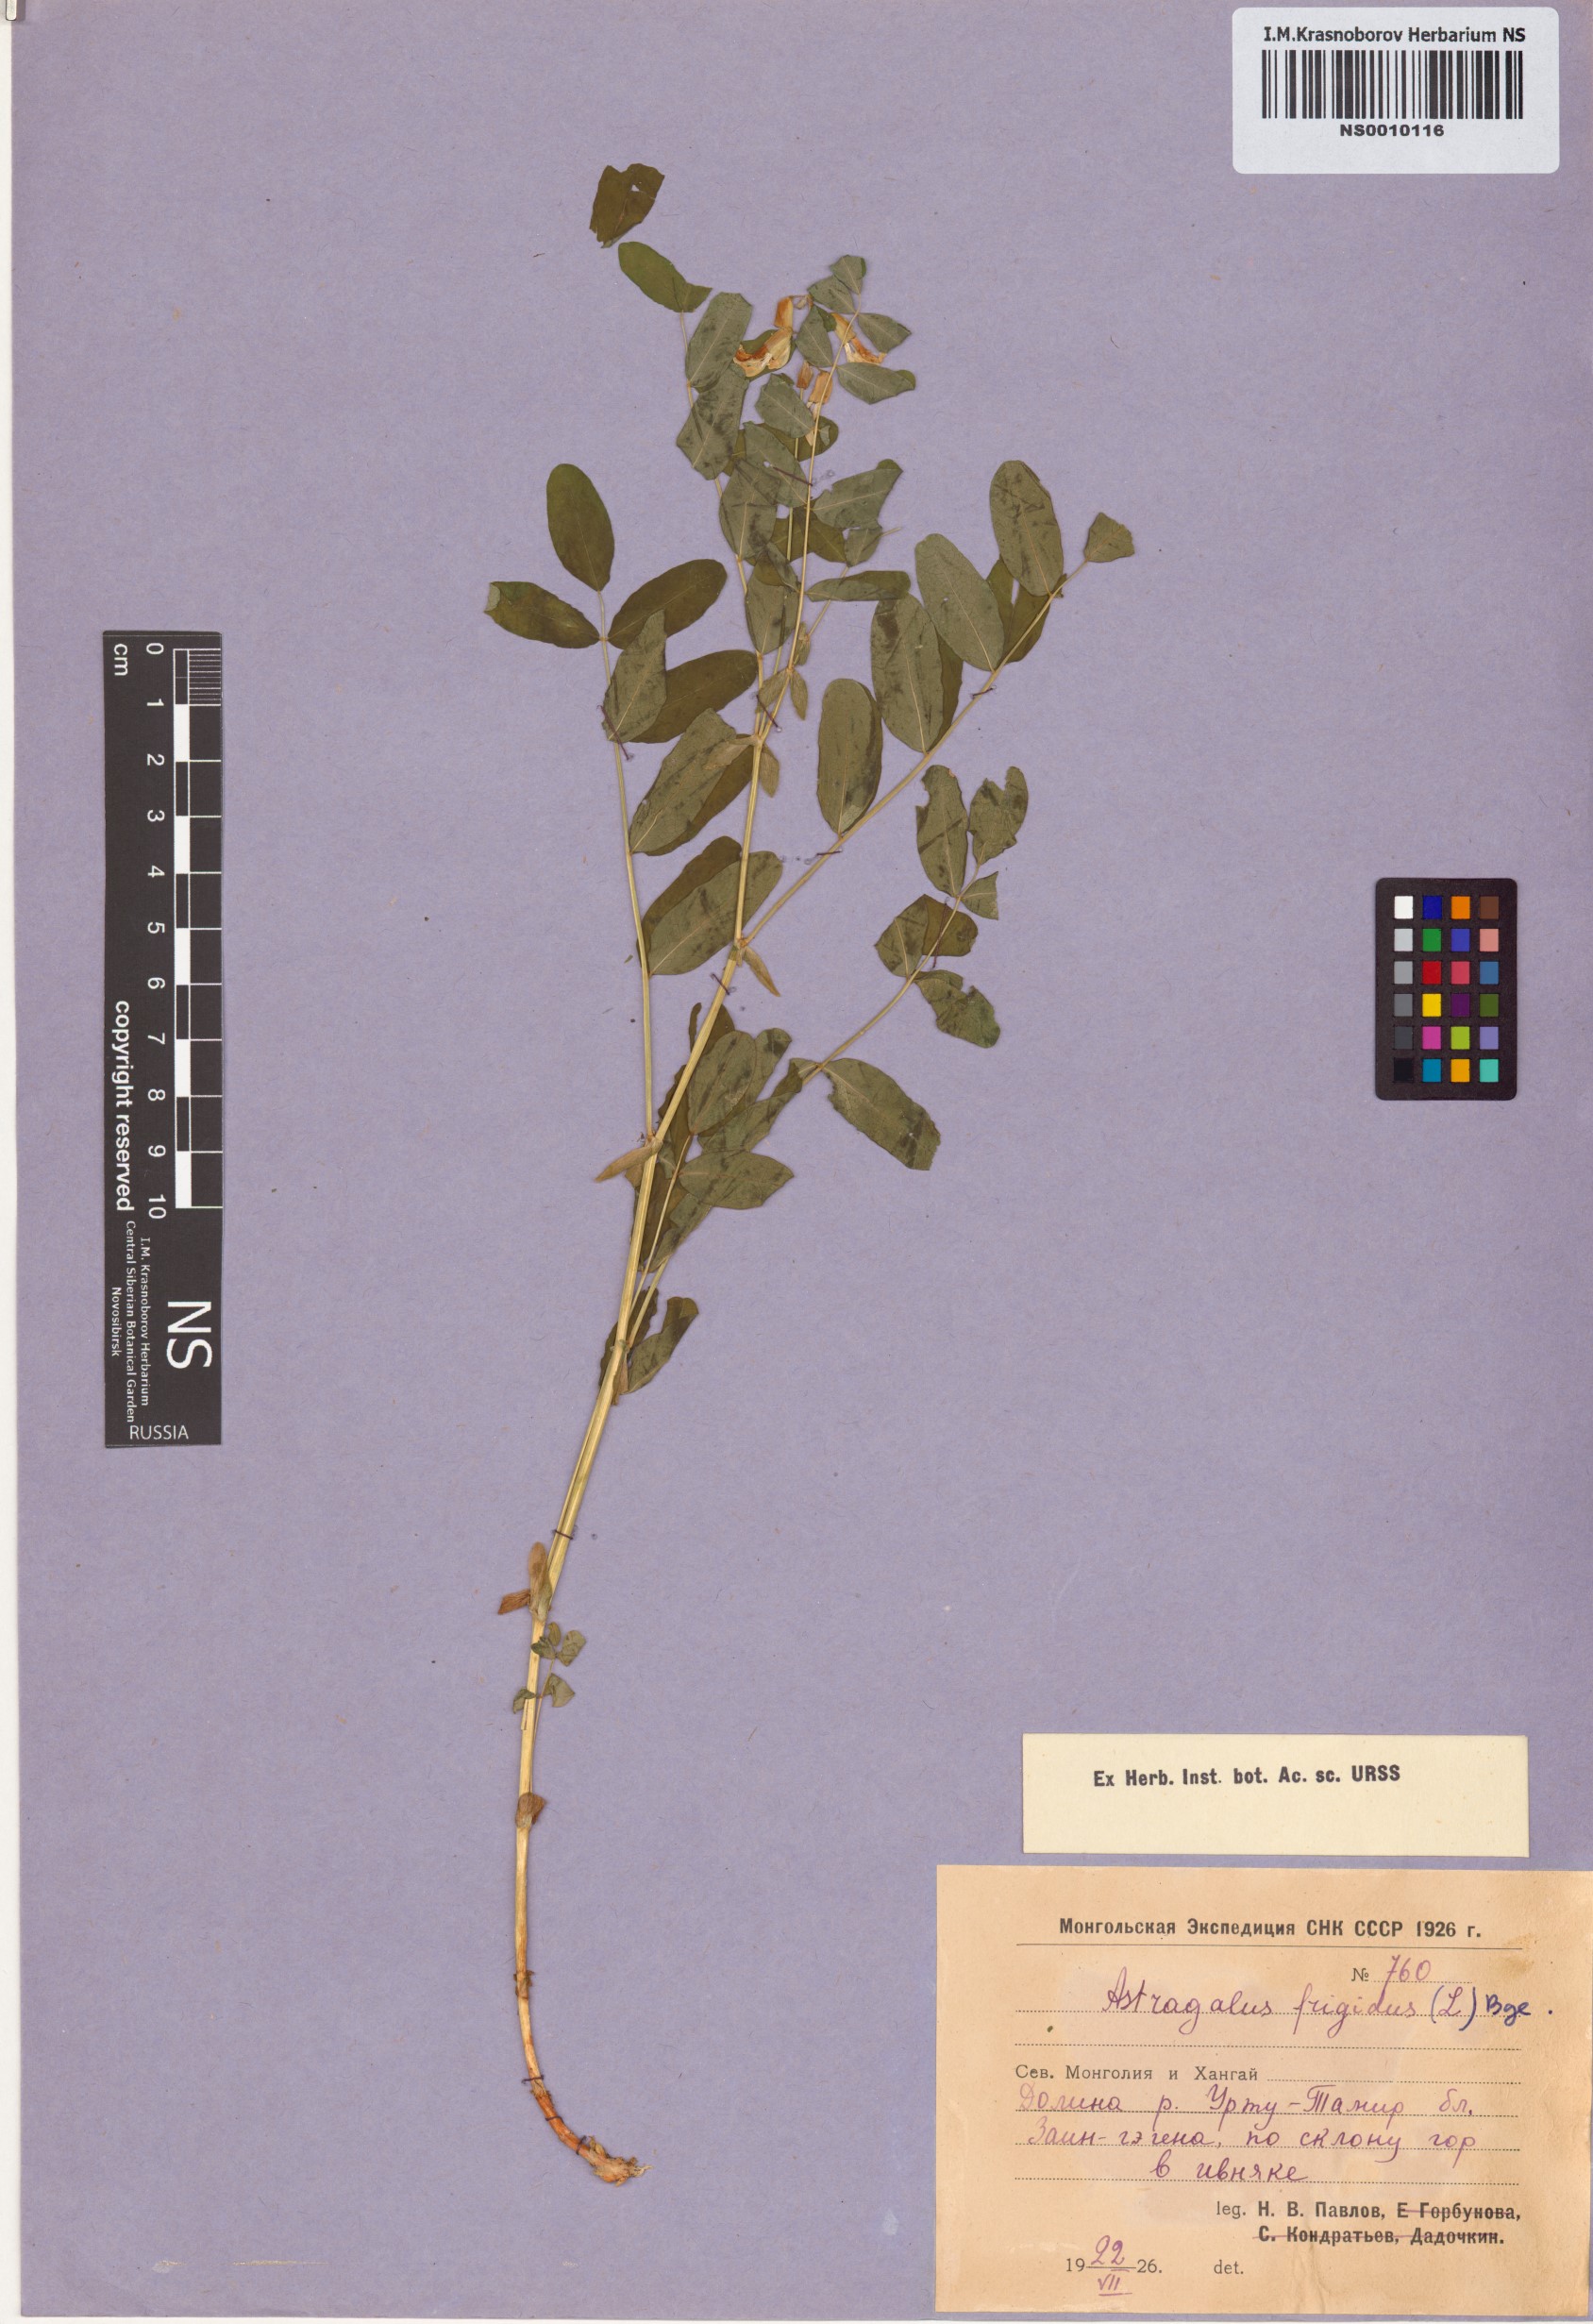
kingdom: Plantae
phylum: Tracheophyta
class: Magnoliopsida
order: Fabales
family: Fabaceae
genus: Astragalus
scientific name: Astragalus frigidus
